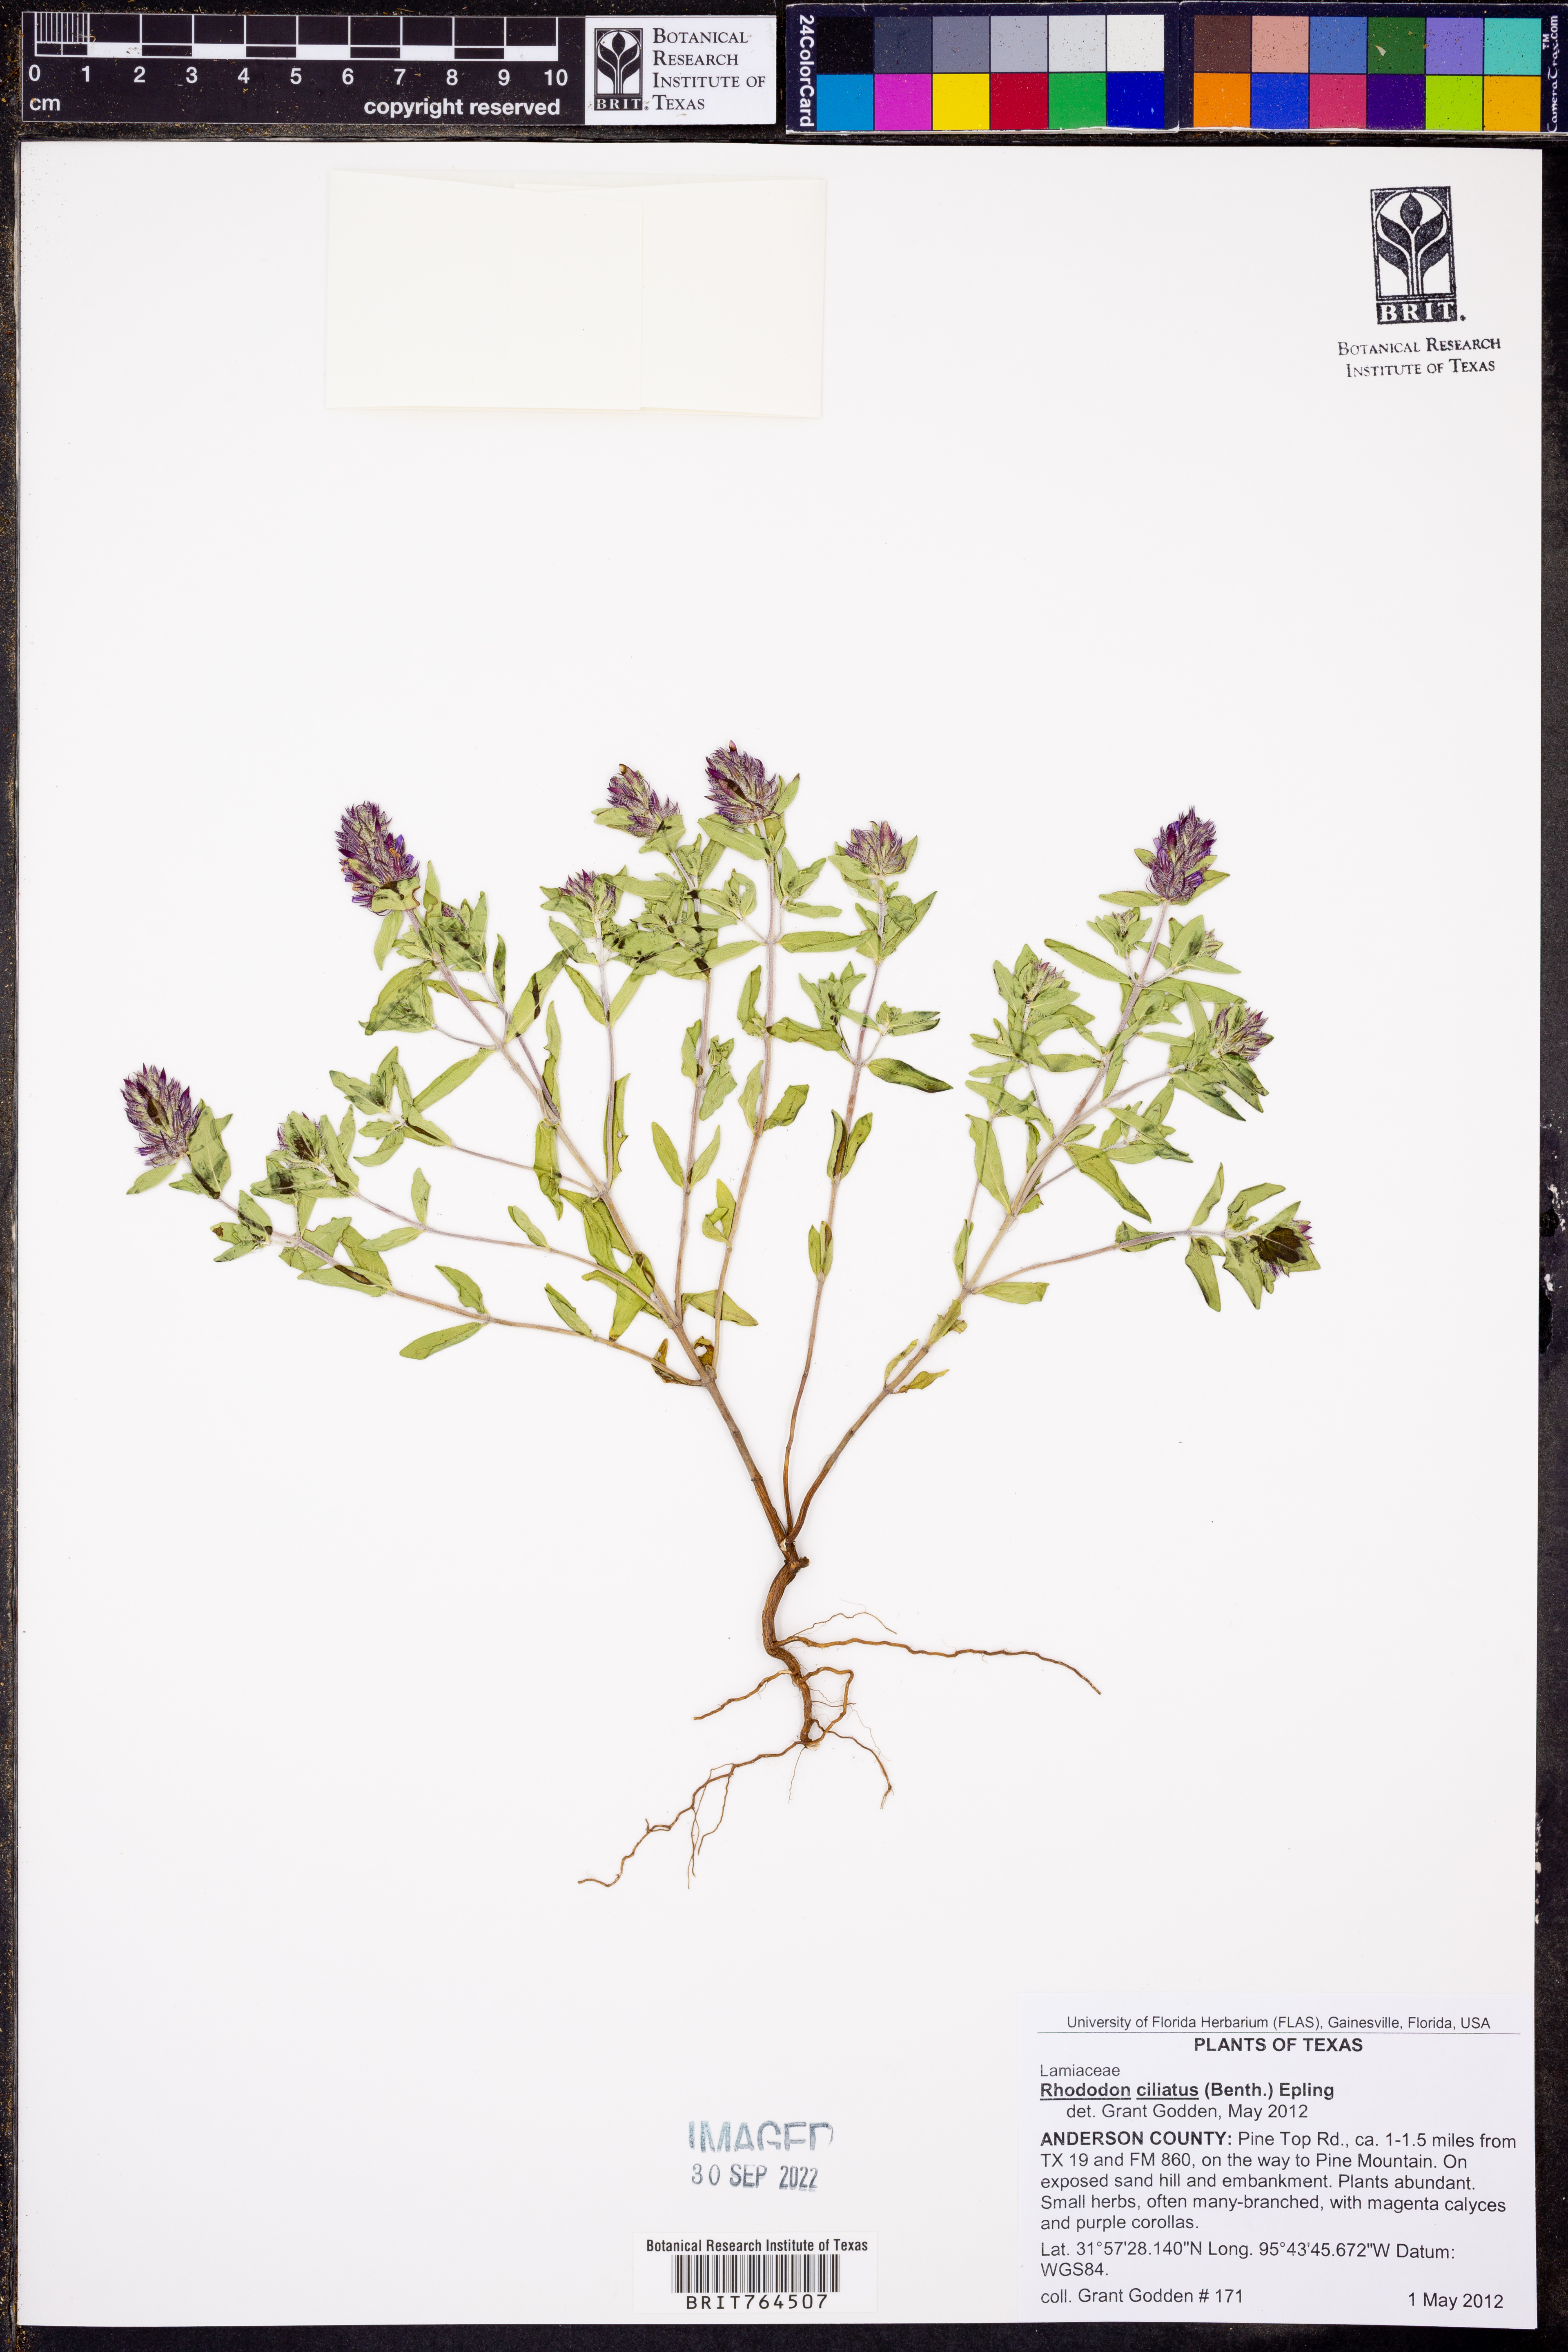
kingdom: Plantae
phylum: Tracheophyta
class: Magnoliopsida
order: Lamiales
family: Lamiaceae
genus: Rhododon
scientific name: Rhododon ciliatus
